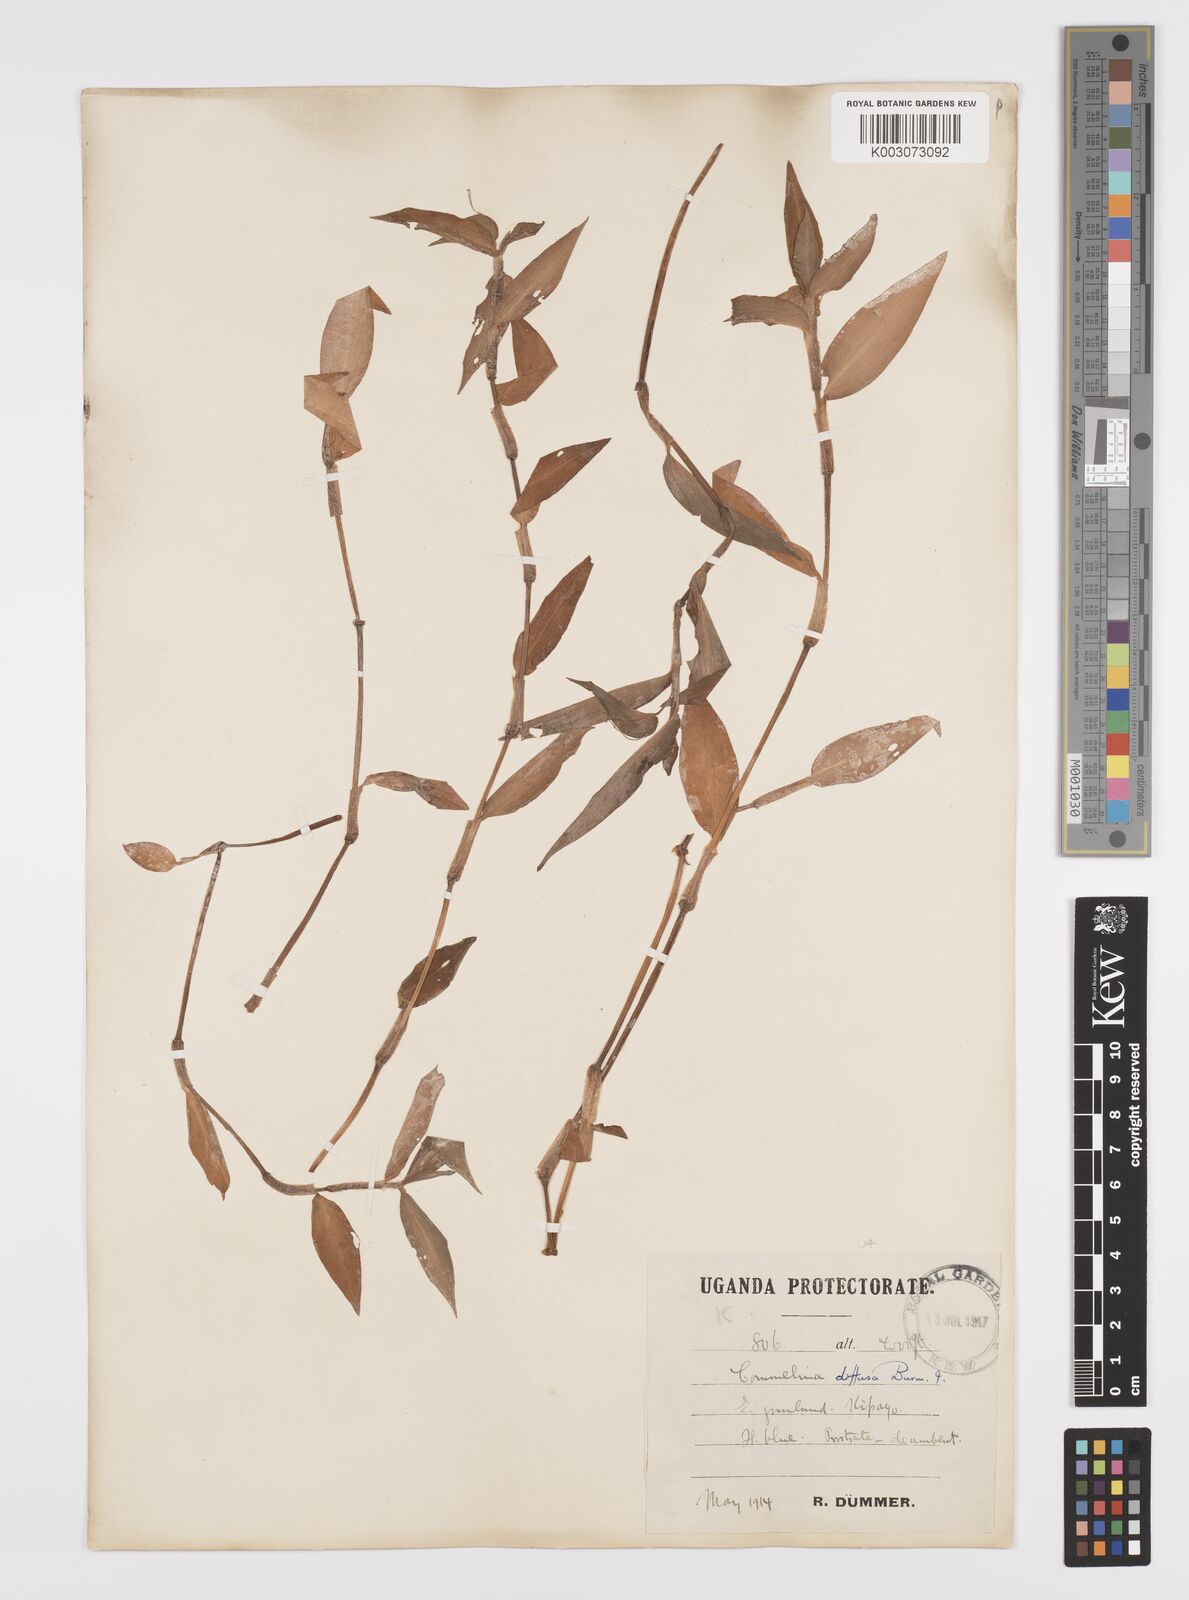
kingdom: Plantae
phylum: Tracheophyta
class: Liliopsida
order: Commelinales
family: Commelinaceae
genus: Commelina
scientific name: Commelina diffusa
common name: Climbing dayflower
